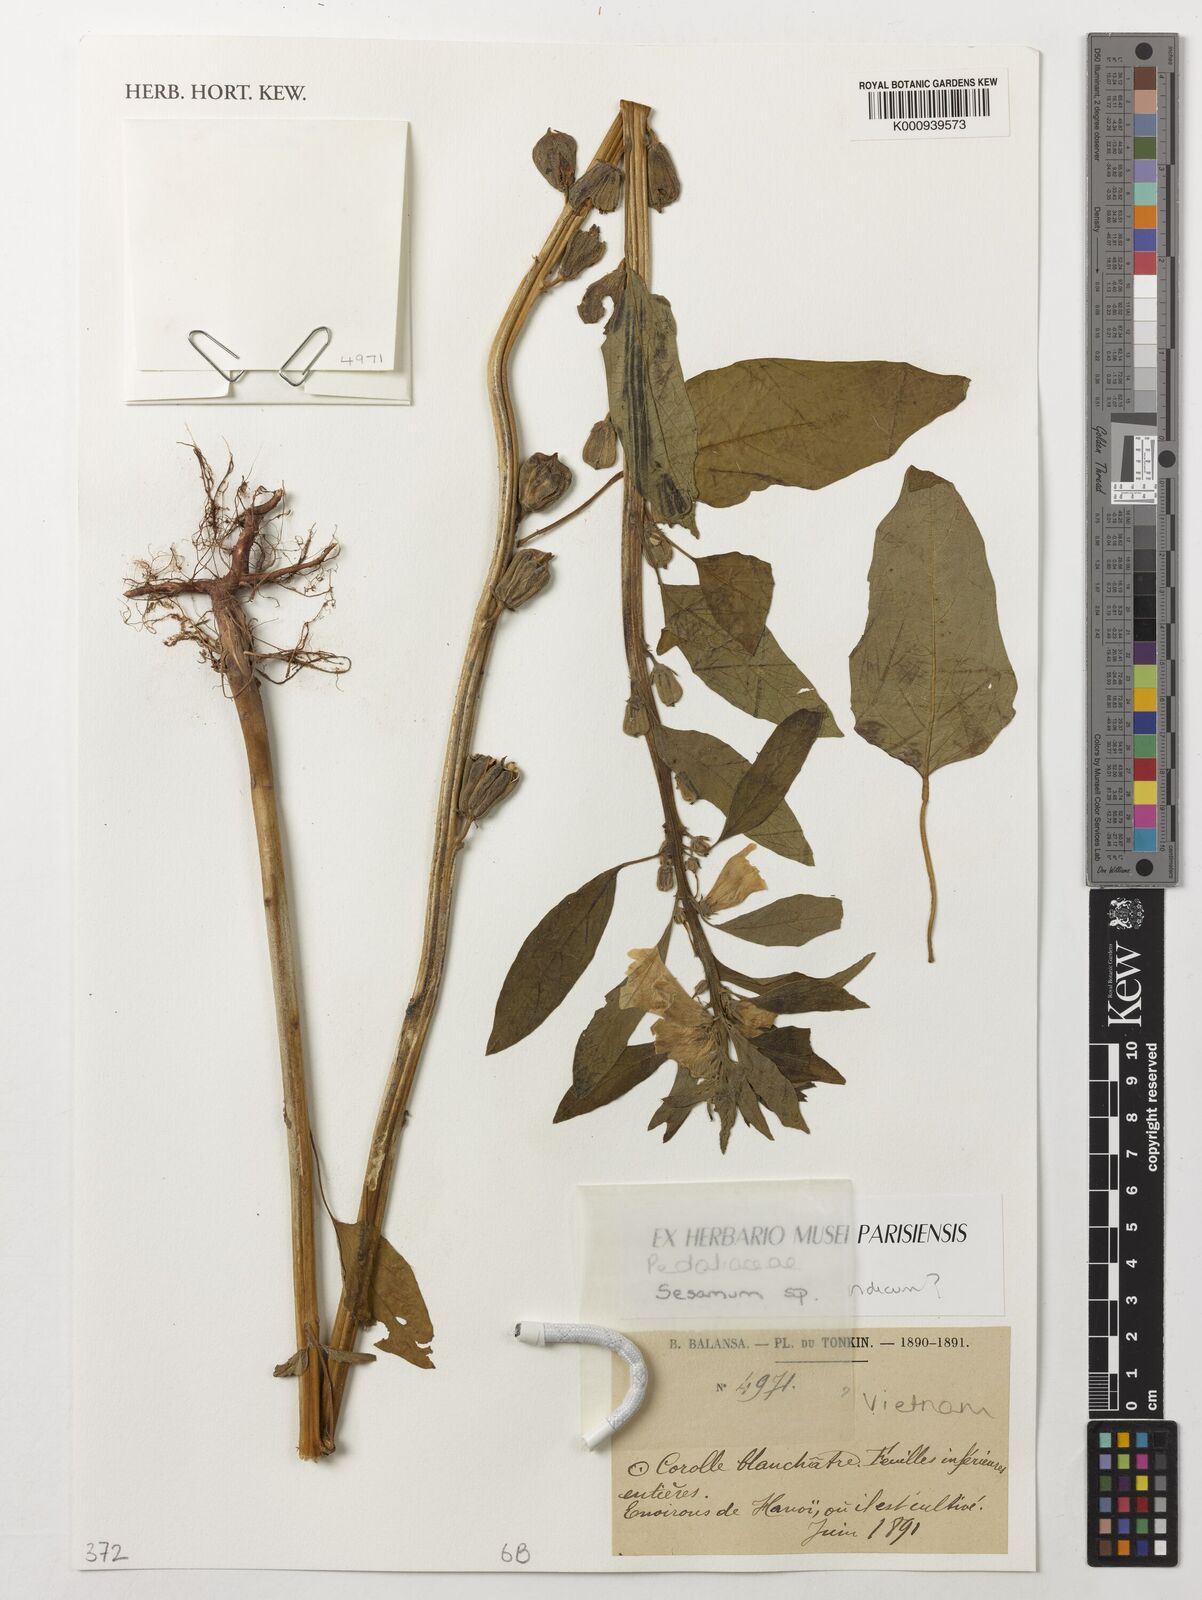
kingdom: Plantae
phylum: Tracheophyta
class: Magnoliopsida
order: Lamiales
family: Pedaliaceae
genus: Sesamum
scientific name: Sesamum
